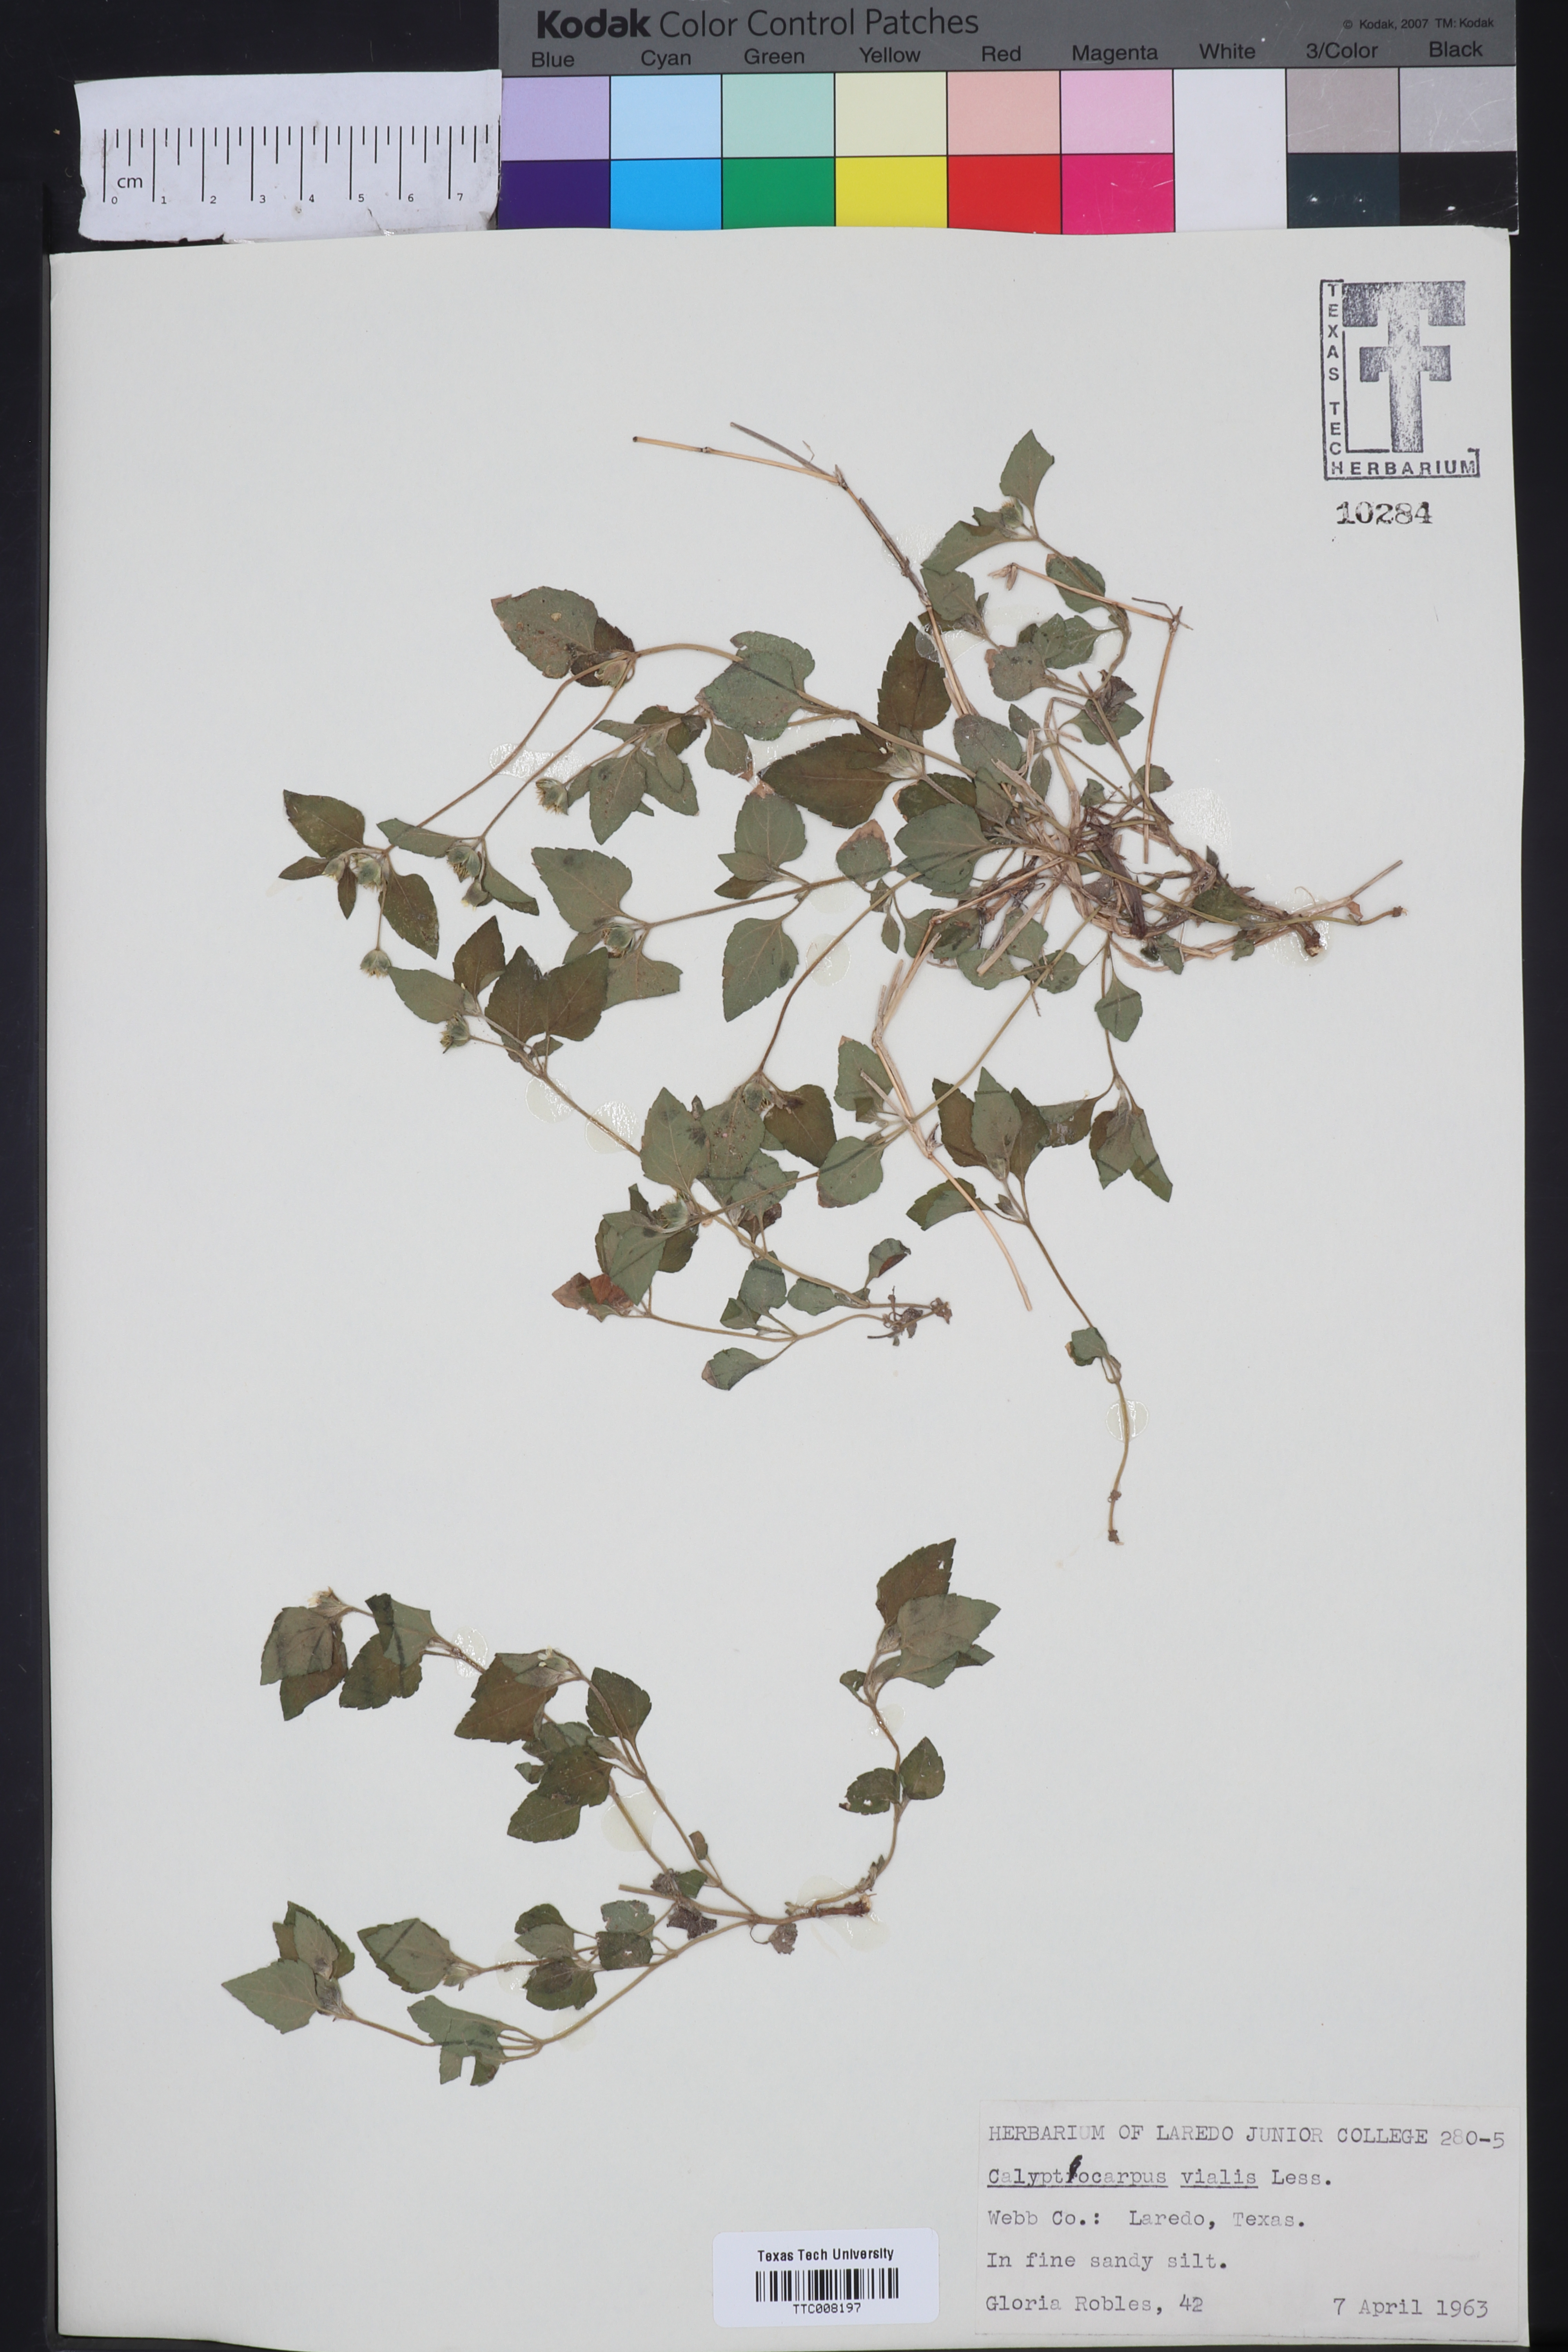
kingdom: Plantae
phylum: Tracheophyta
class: Magnoliopsida
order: Asterales
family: Asteraceae
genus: Calyptocarpus
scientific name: Calyptocarpus vialis
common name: Straggler daisy
